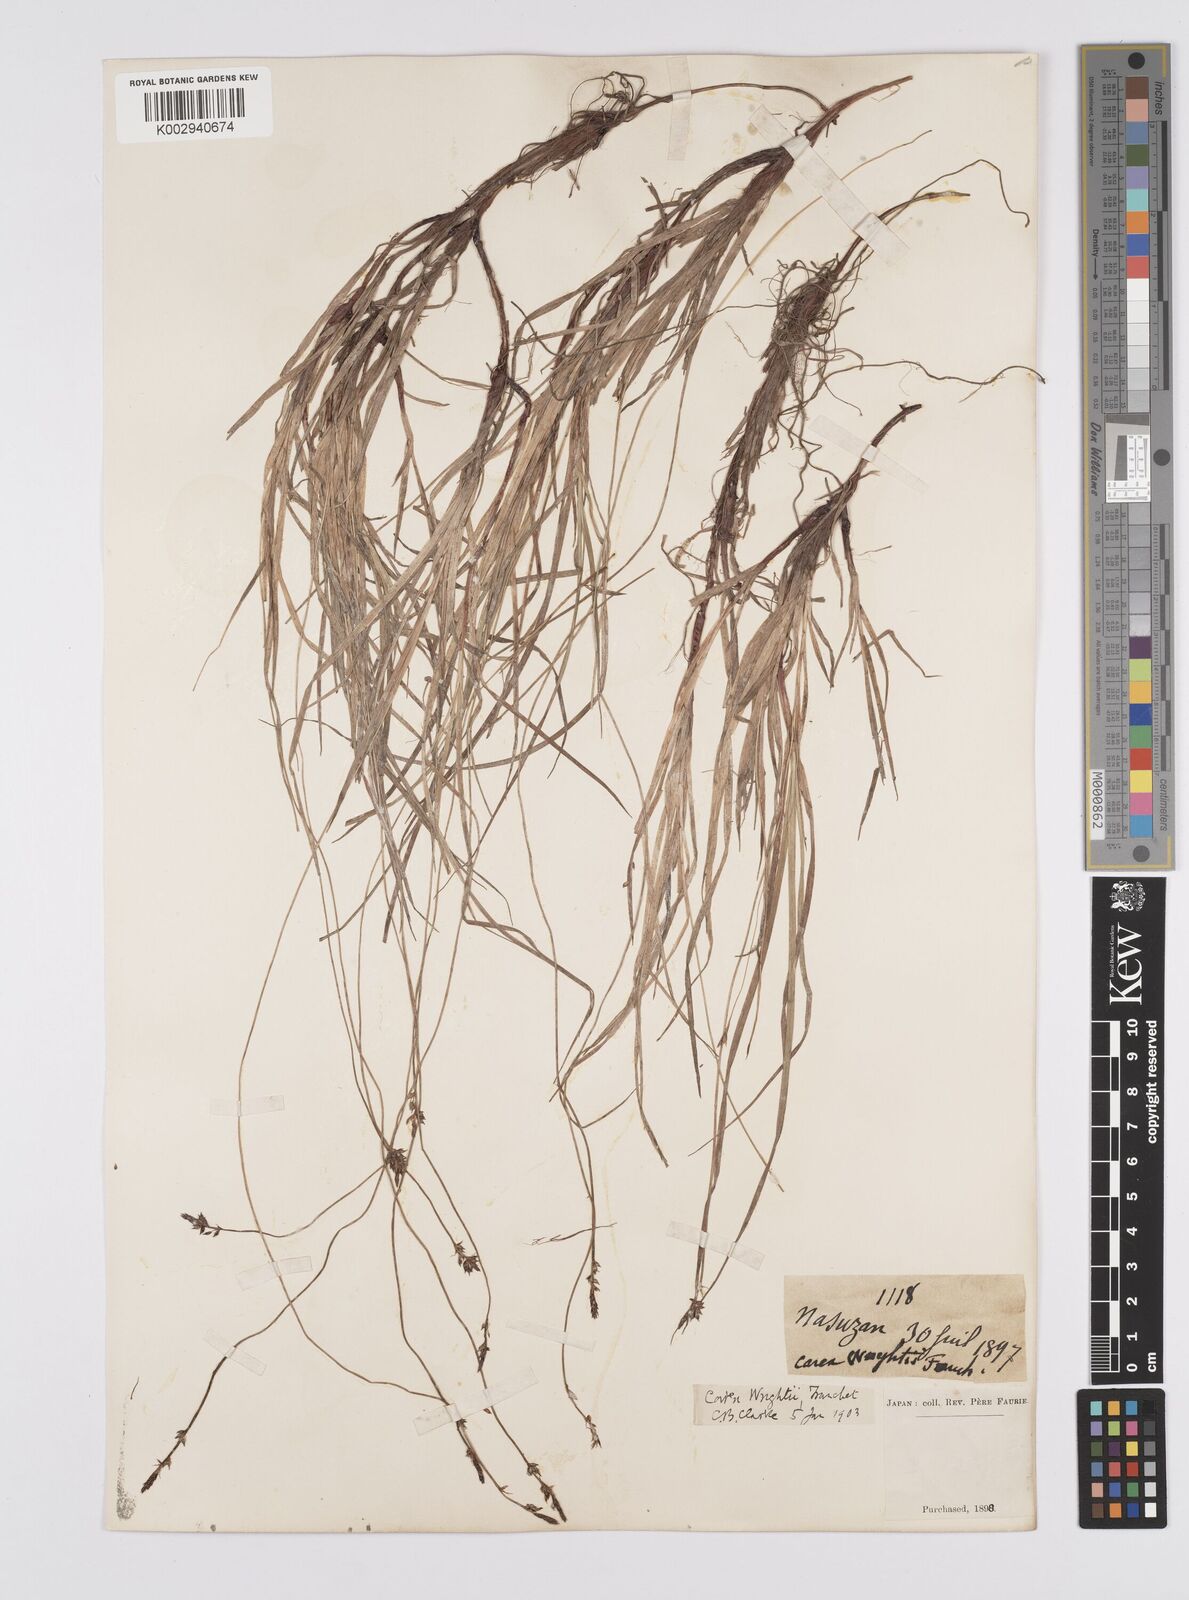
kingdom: Plantae
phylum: Tracheophyta
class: Liliopsida
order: Poales
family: Cyperaceae
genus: Carex
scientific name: Carex oxyandra
